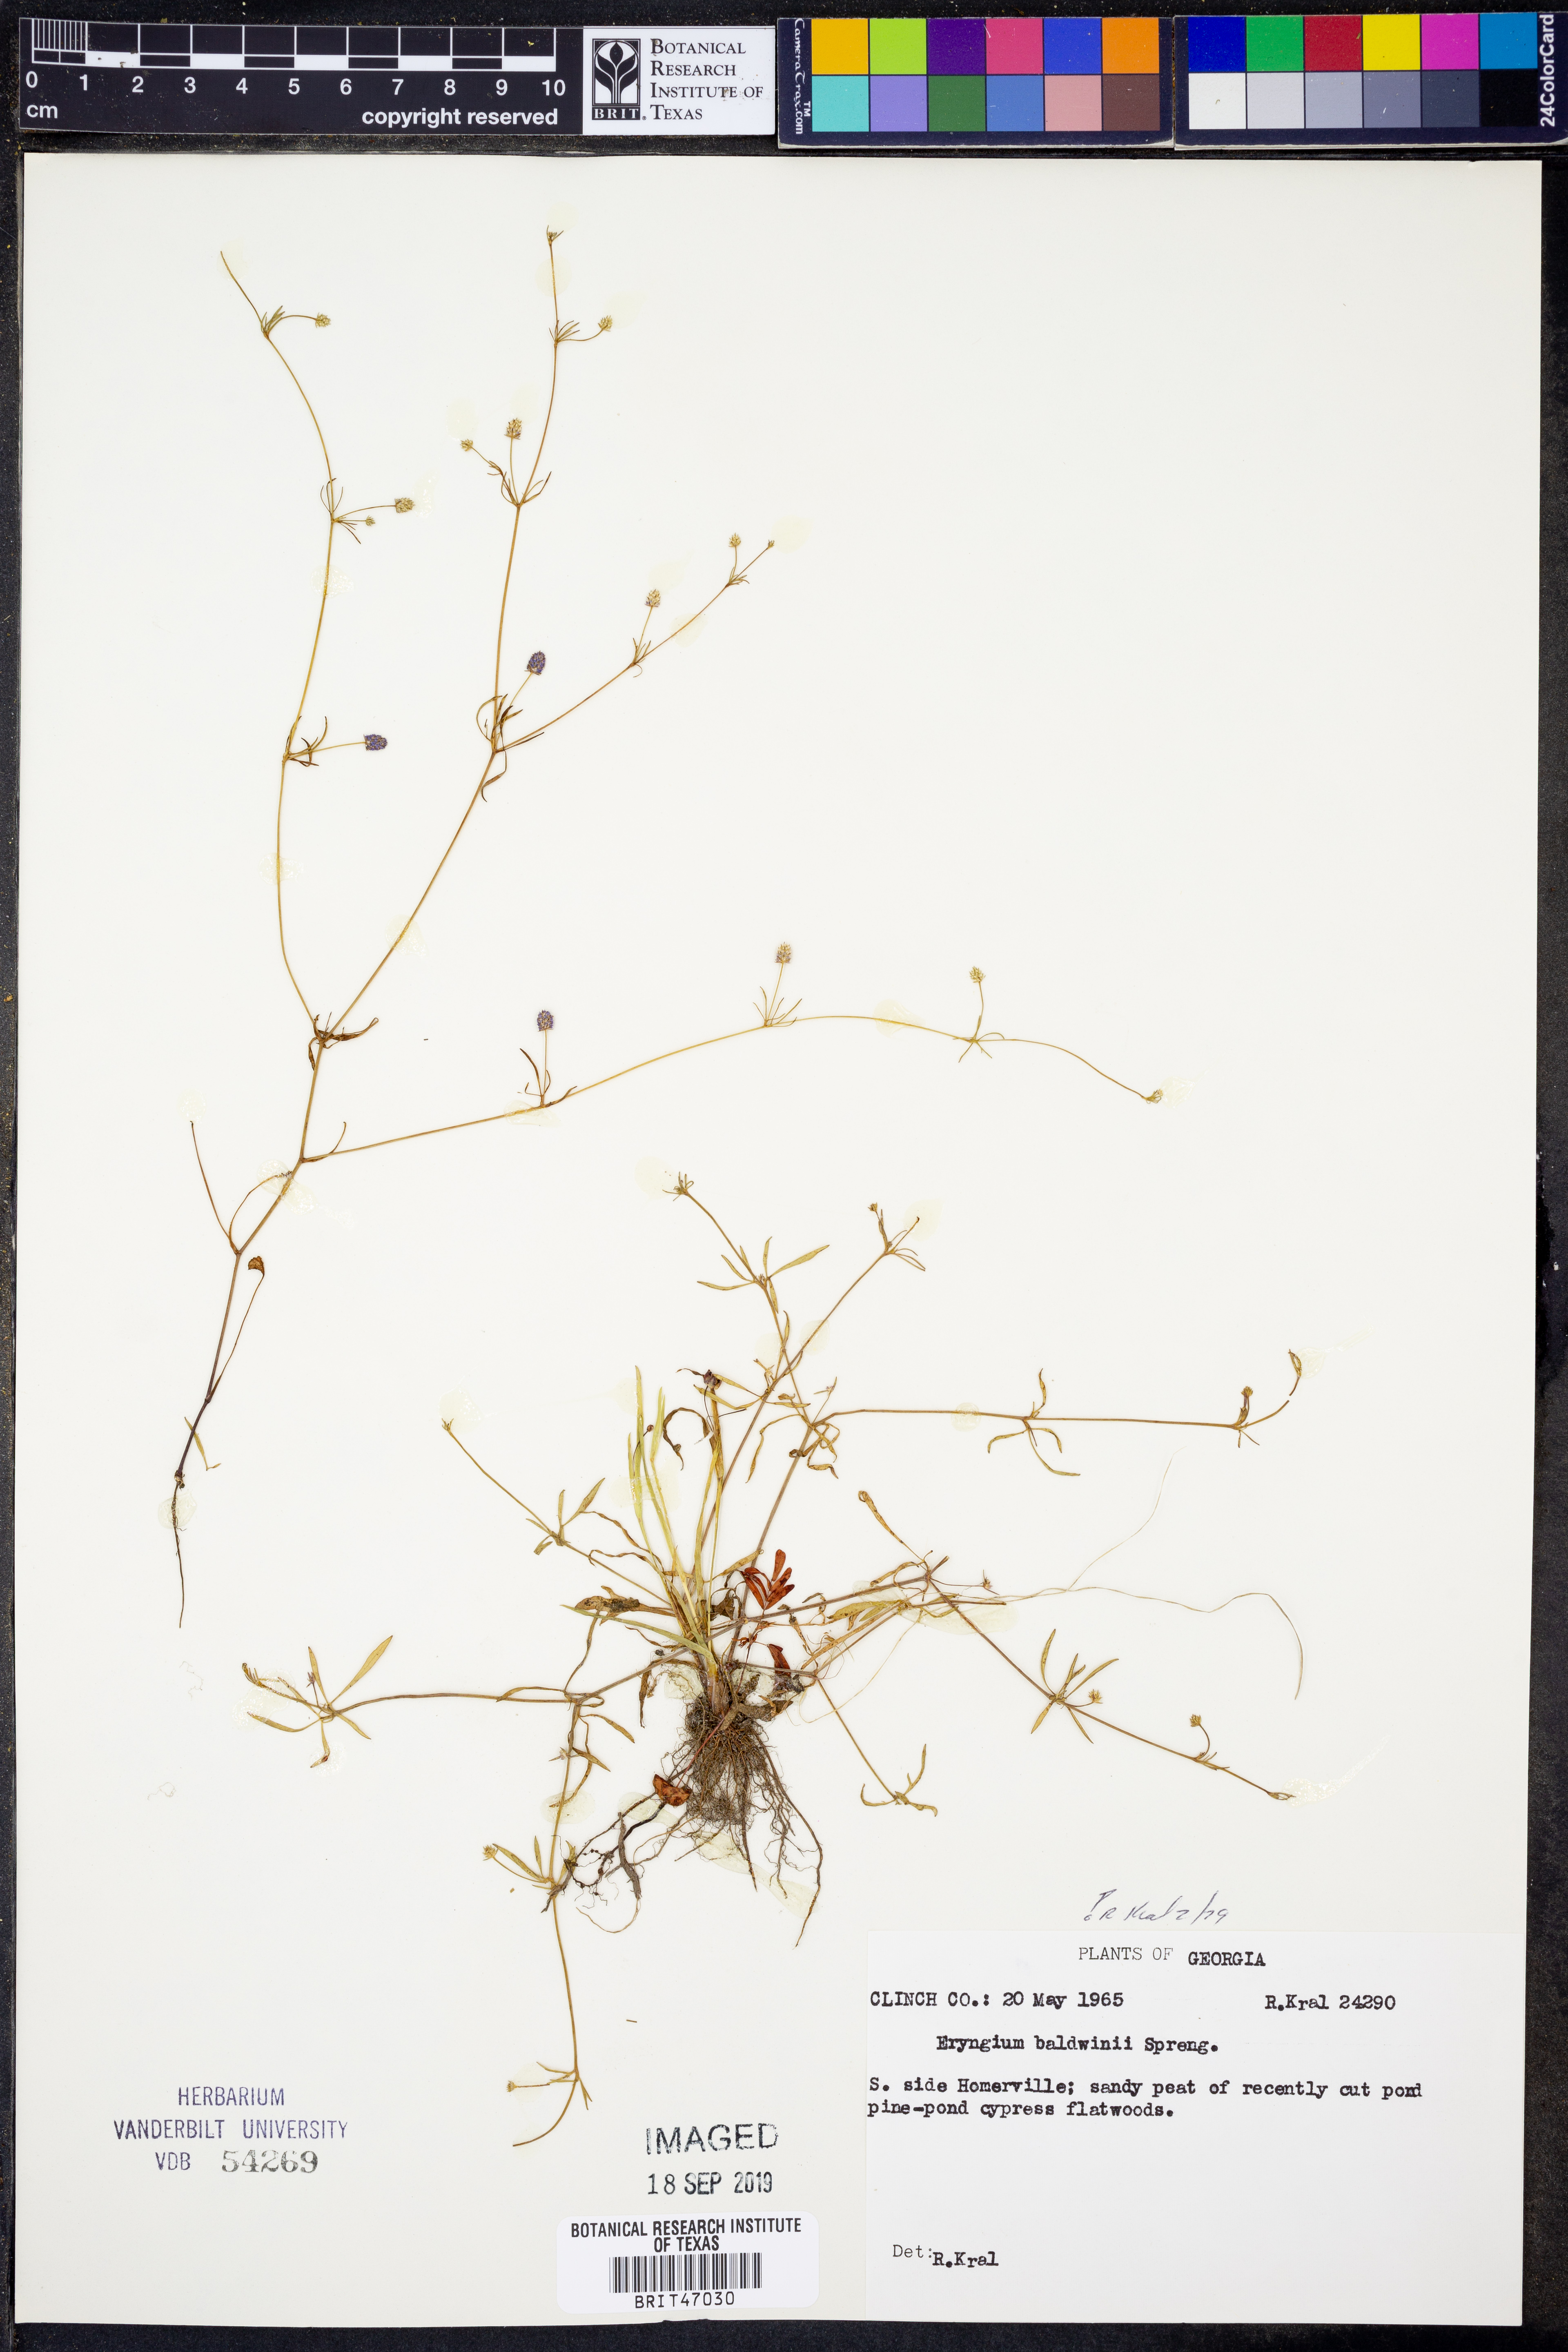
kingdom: Plantae
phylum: Tracheophyta
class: Magnoliopsida
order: Apiales
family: Apiaceae
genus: Eryngium
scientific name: Eryngium baldwinii
